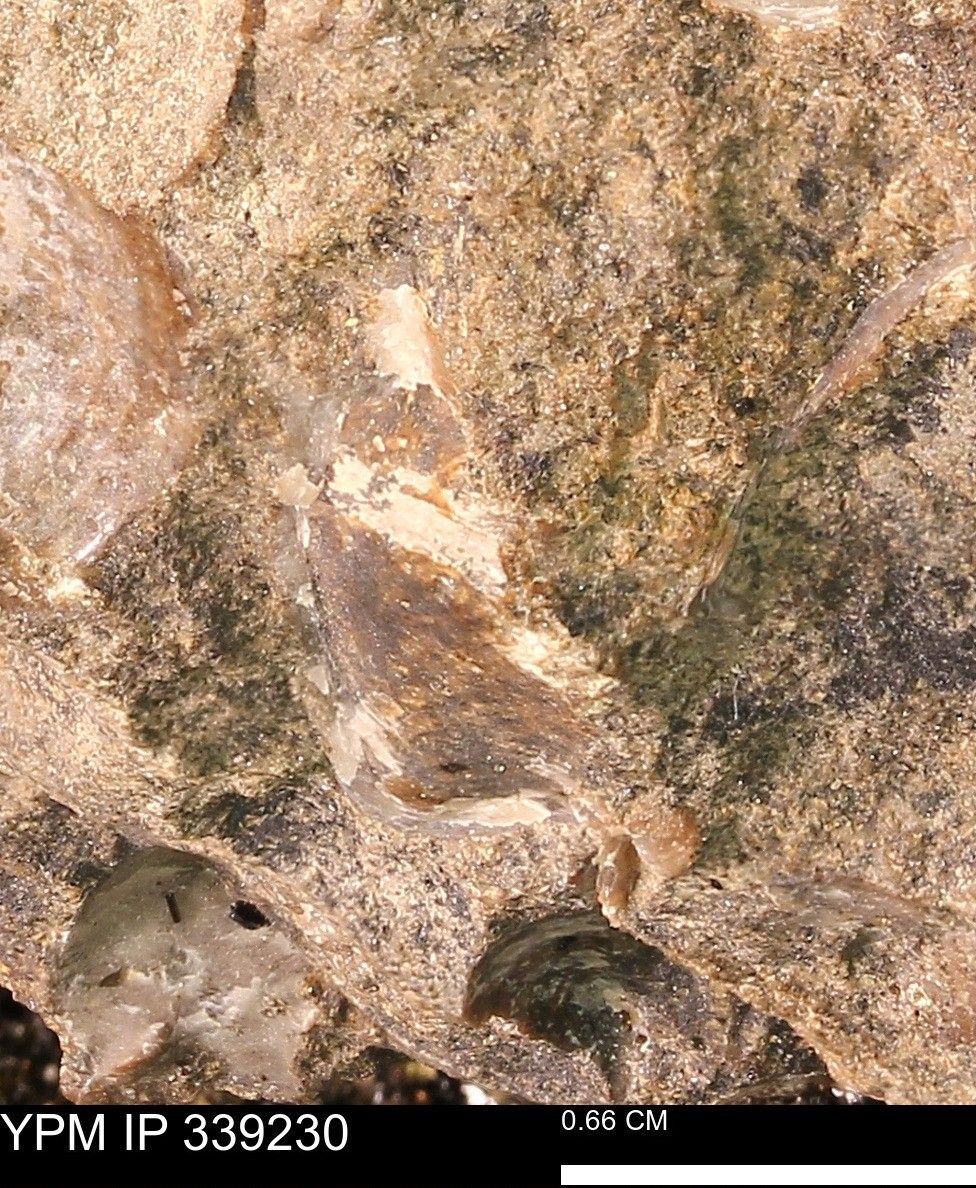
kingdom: Animalia
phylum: Mollusca
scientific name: Mollusca
